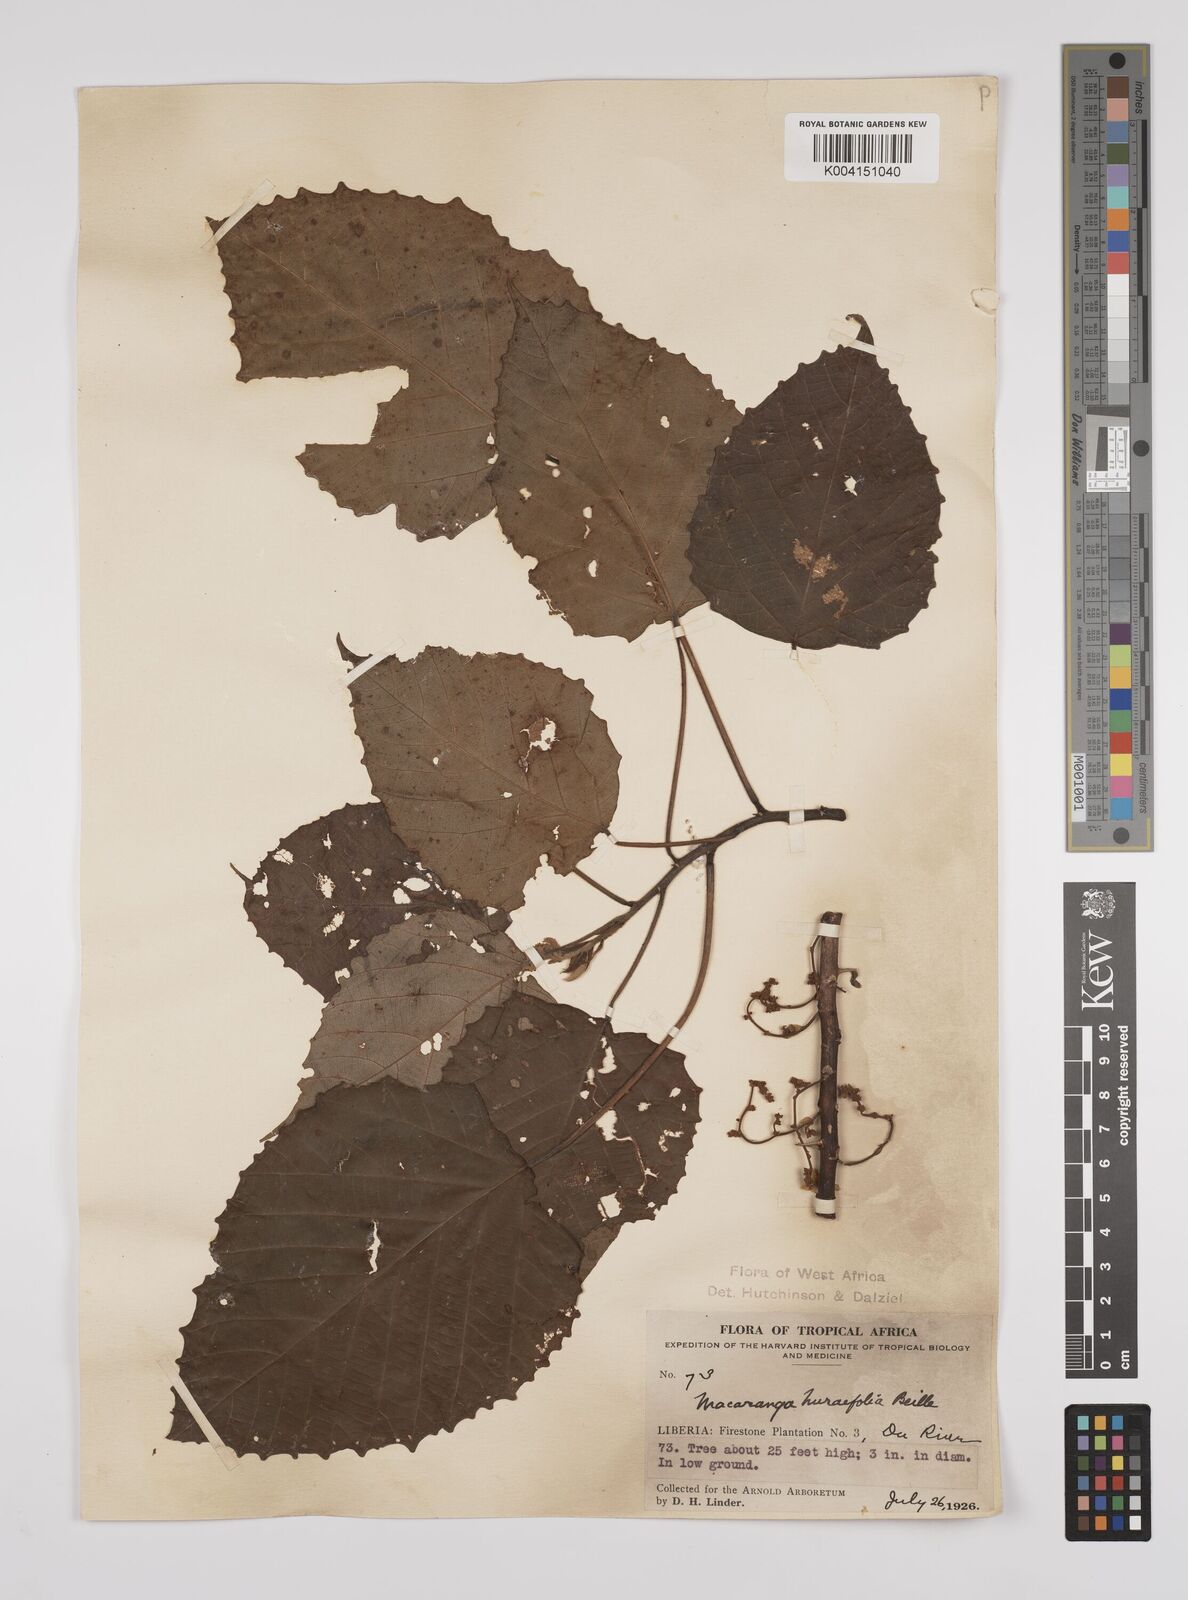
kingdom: Plantae
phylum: Tracheophyta
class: Magnoliopsida
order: Malpighiales
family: Euphorbiaceae
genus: Macaranga
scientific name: Macaranga hurifolia
